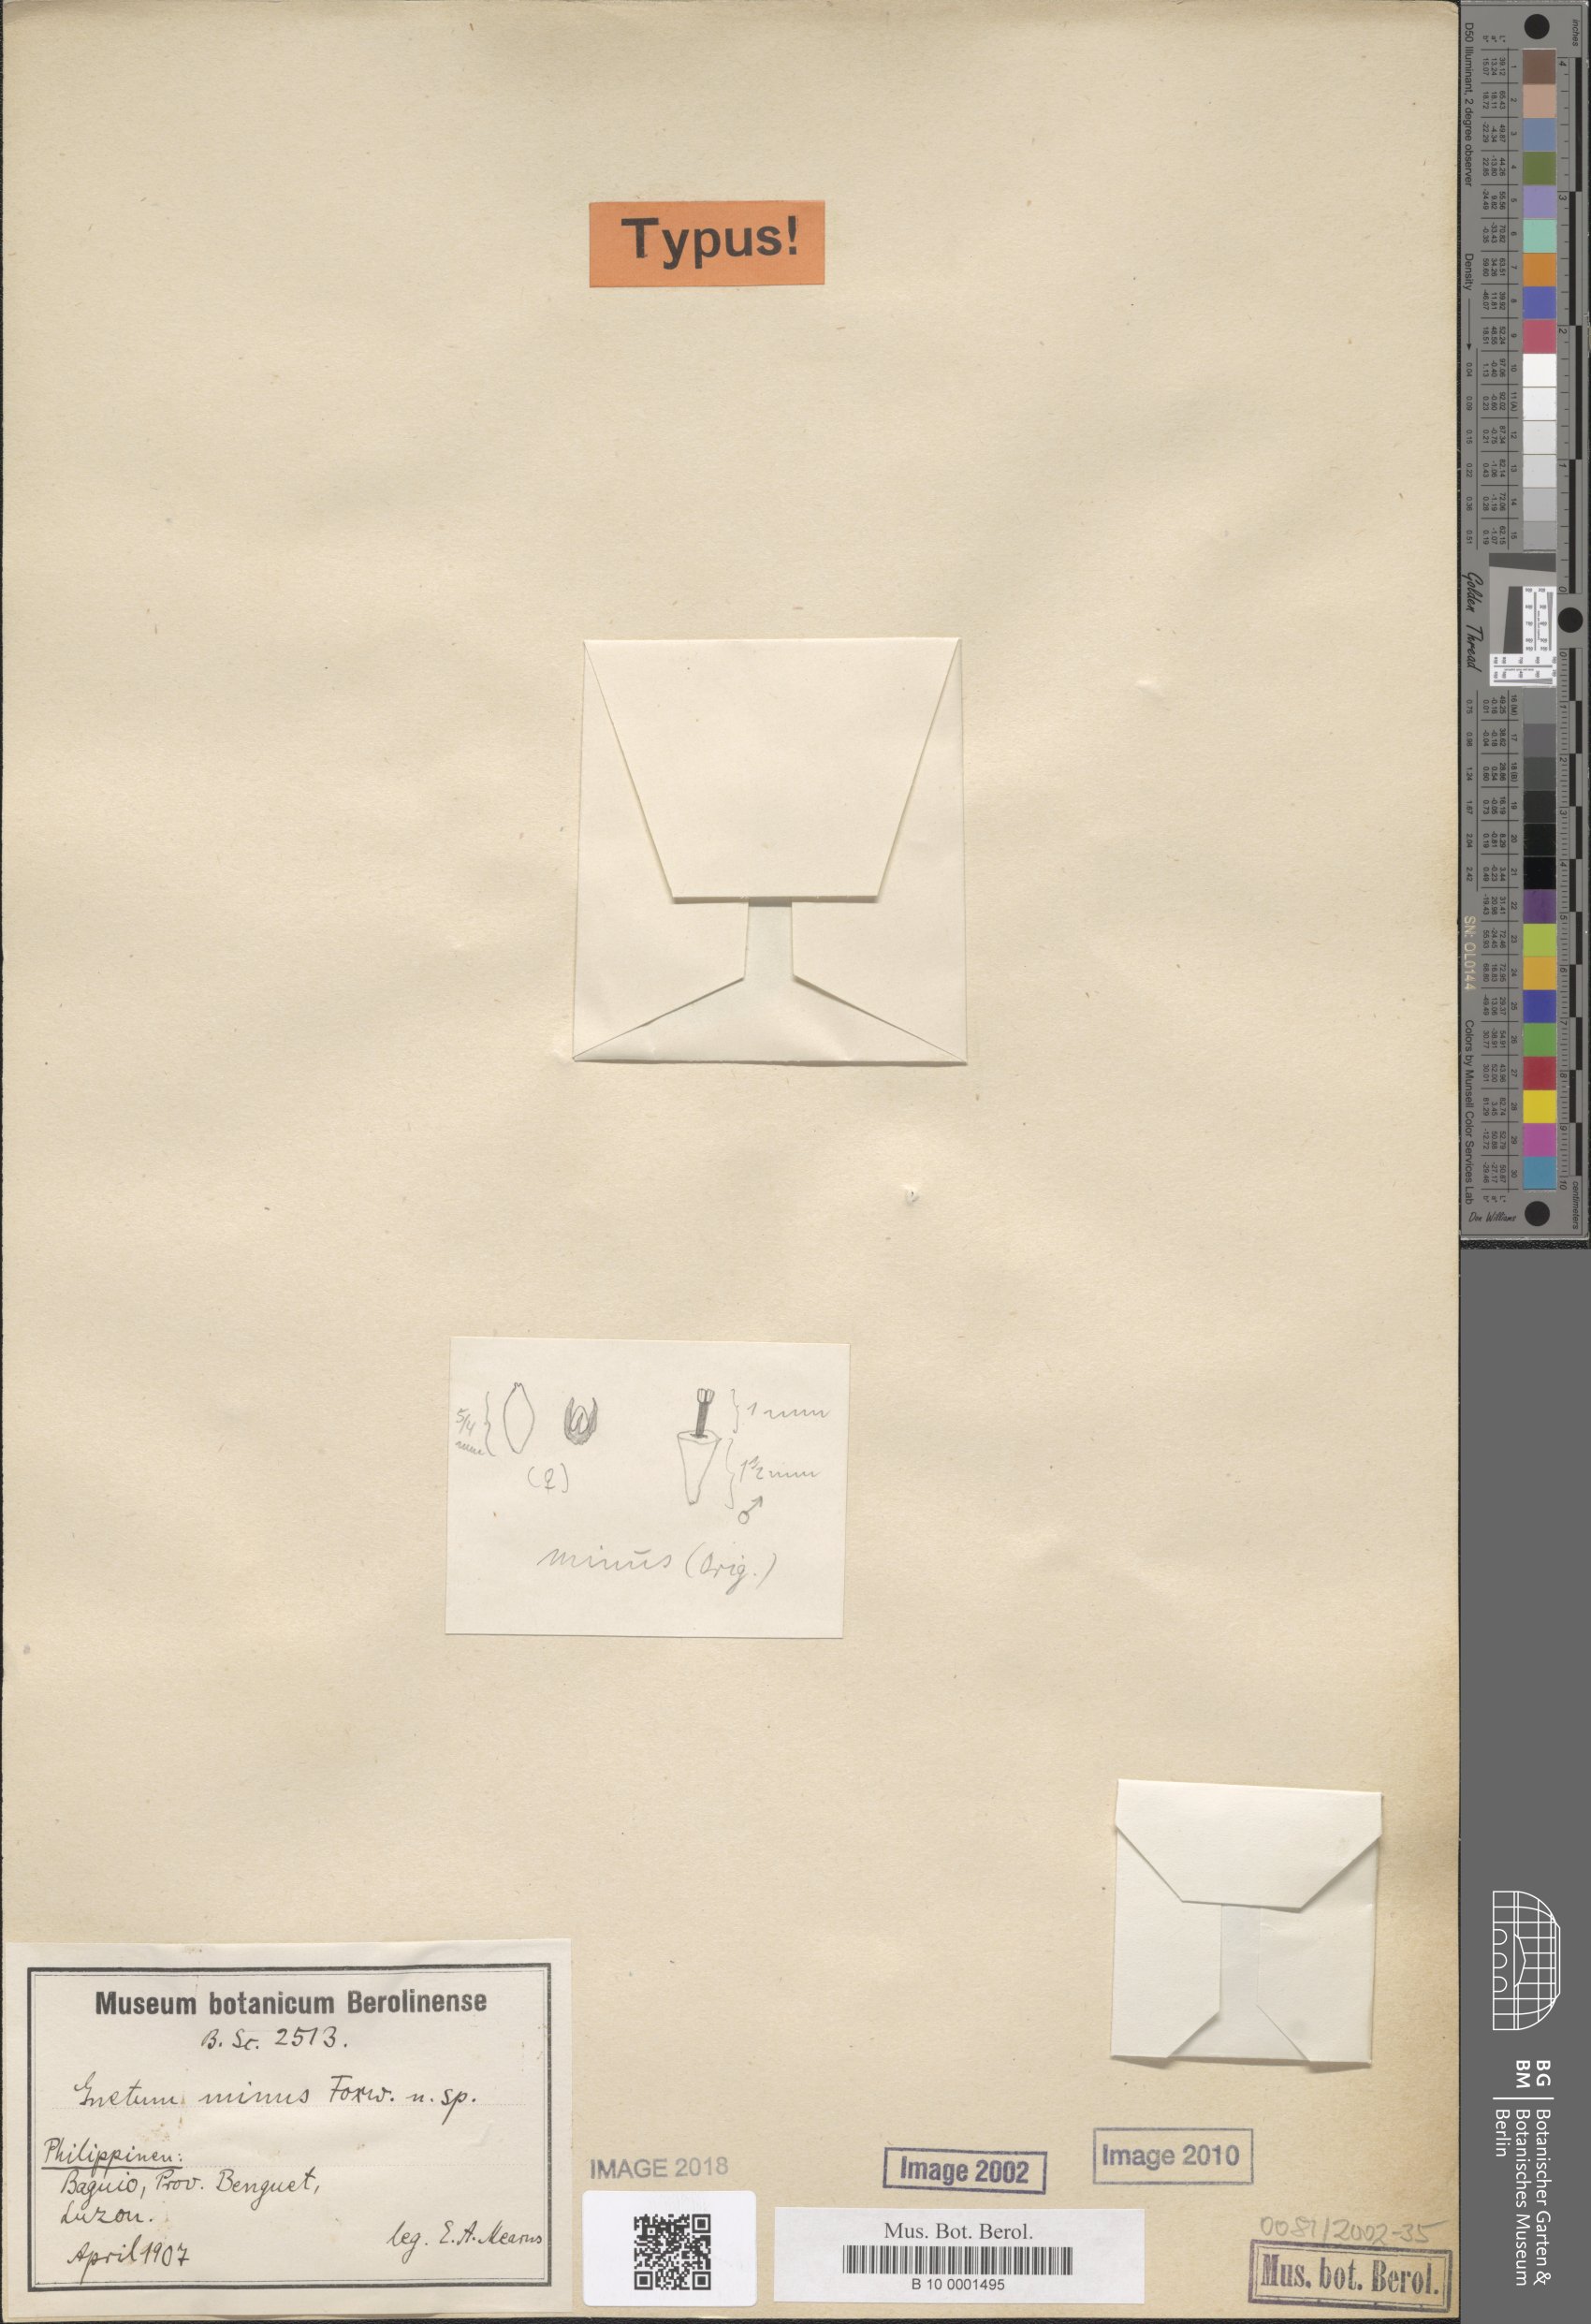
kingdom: Plantae
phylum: Tracheophyta
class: Gnetopsida
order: Gnetales
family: Gnetaceae
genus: Gnetum
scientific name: Gnetum latifolium
